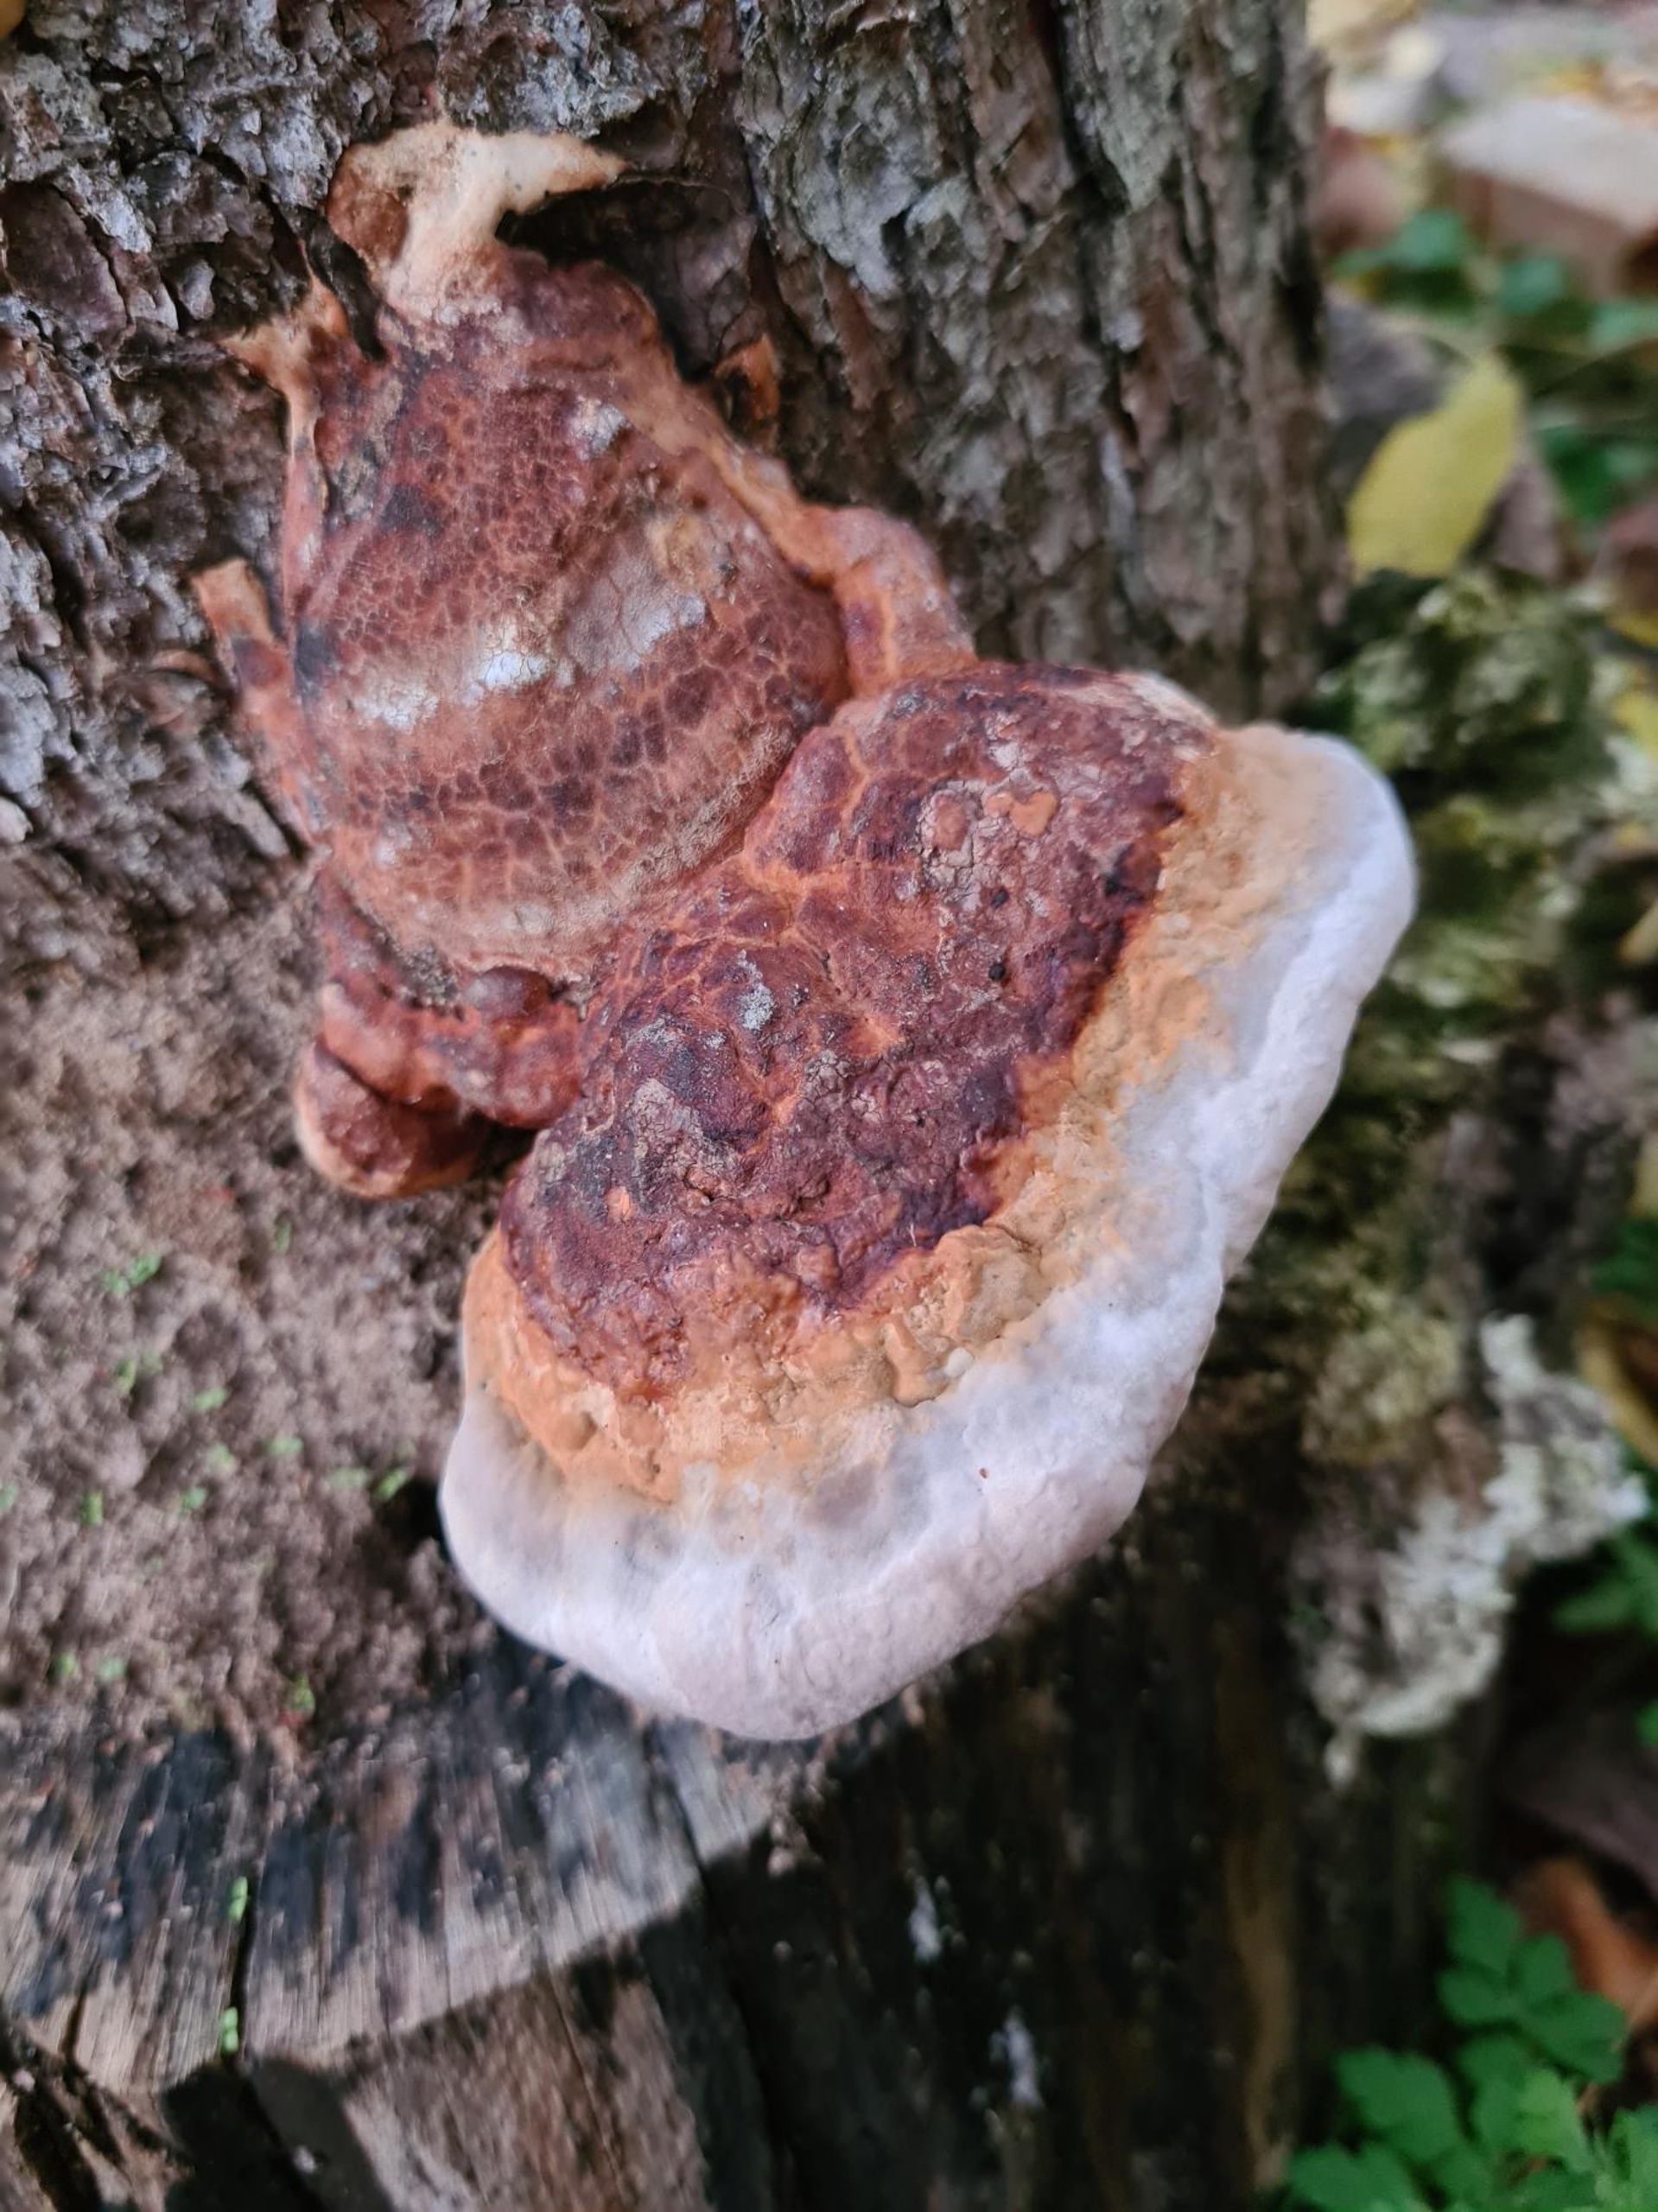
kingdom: Fungi
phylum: Basidiomycota
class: Agaricomycetes
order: Polyporales
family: Fomitopsidaceae
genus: Fomitopsis
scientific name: Fomitopsis pinicola
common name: Randbæltet hovporesvamp
